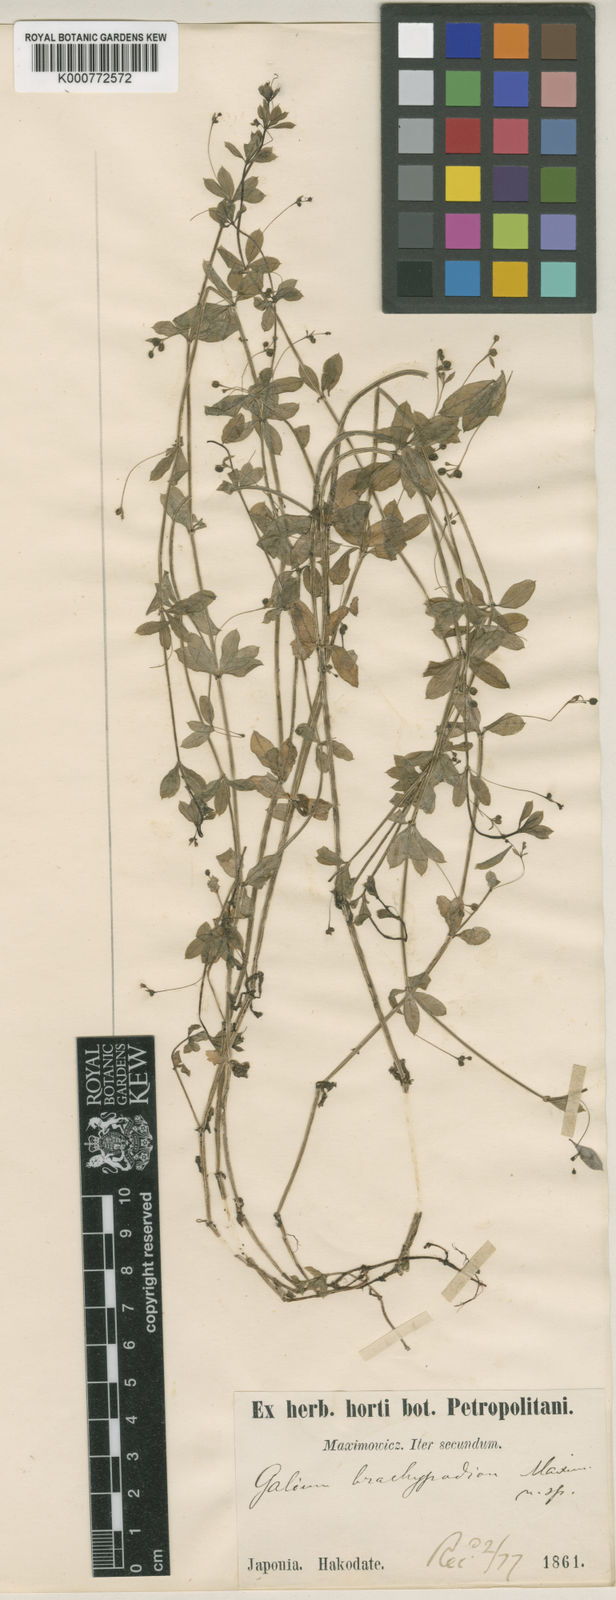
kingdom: Plantae
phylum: Tracheophyta
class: Magnoliopsida
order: Gentianales
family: Rubiaceae
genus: Galium
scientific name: Galium kikumugura
